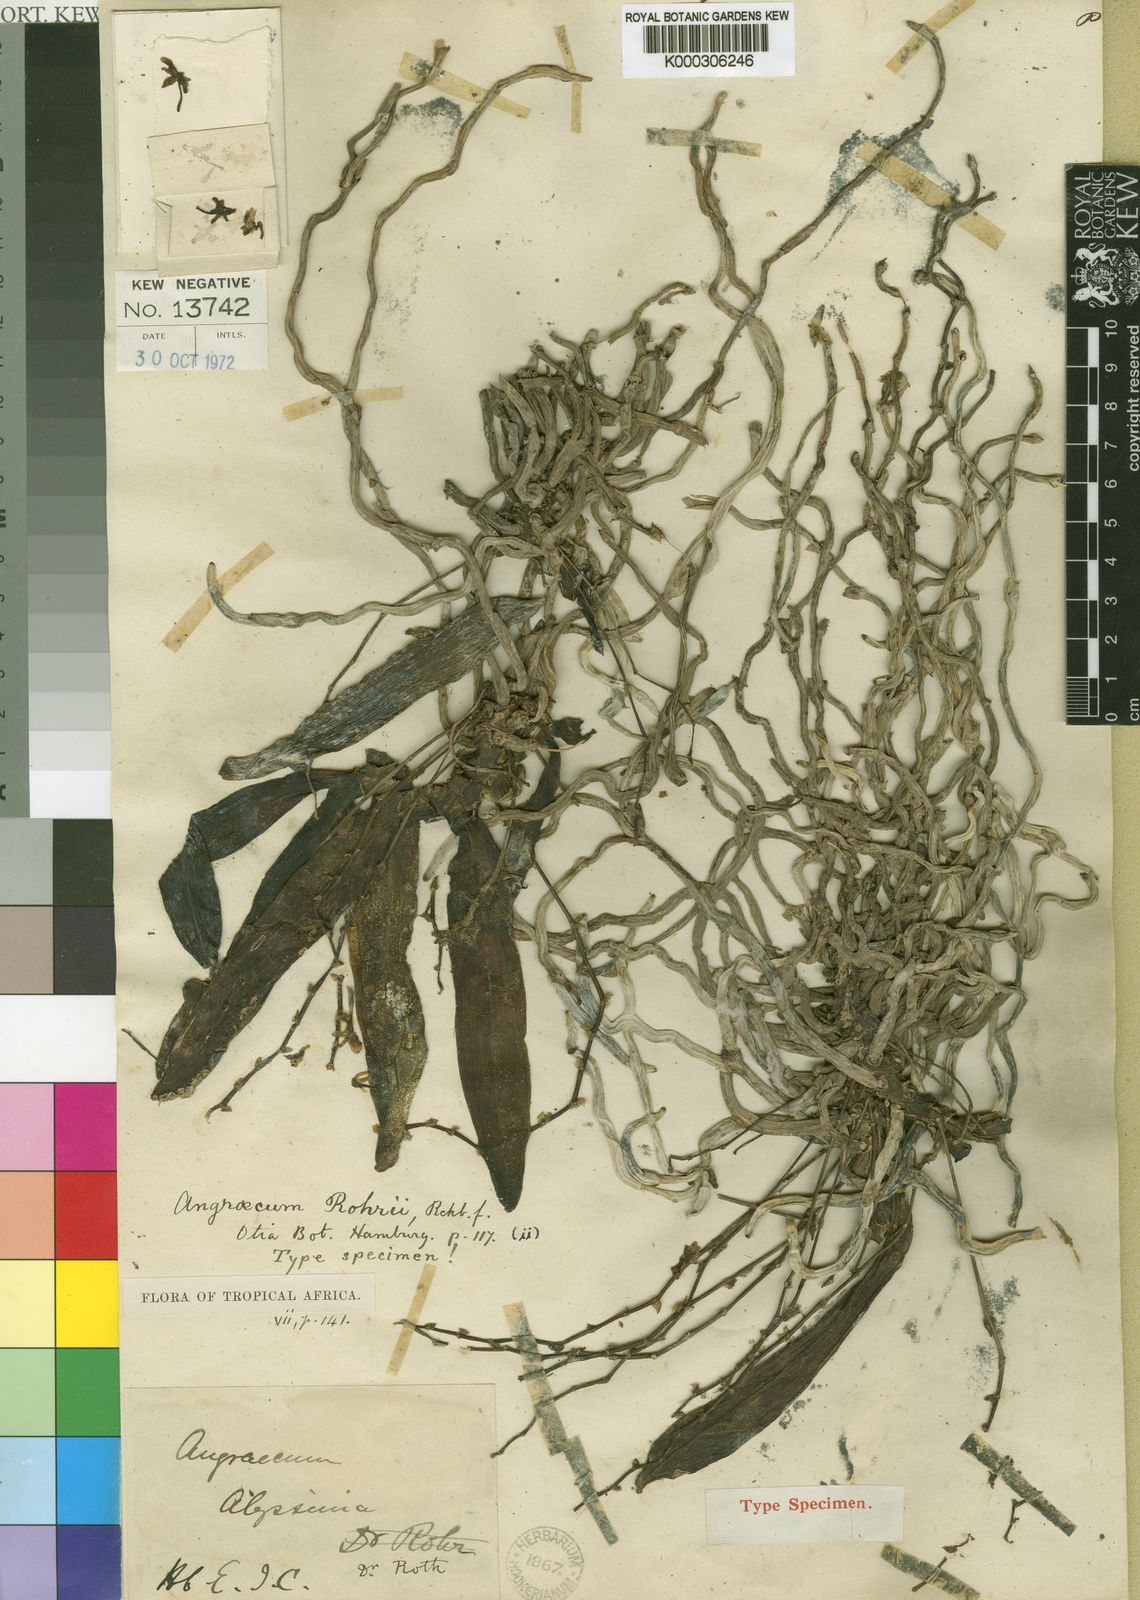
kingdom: Plantae
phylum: Tracheophyta
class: Liliopsida
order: Asparagales
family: Orchidaceae
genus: Kylicanthe
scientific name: Kylicanthe rohrii
